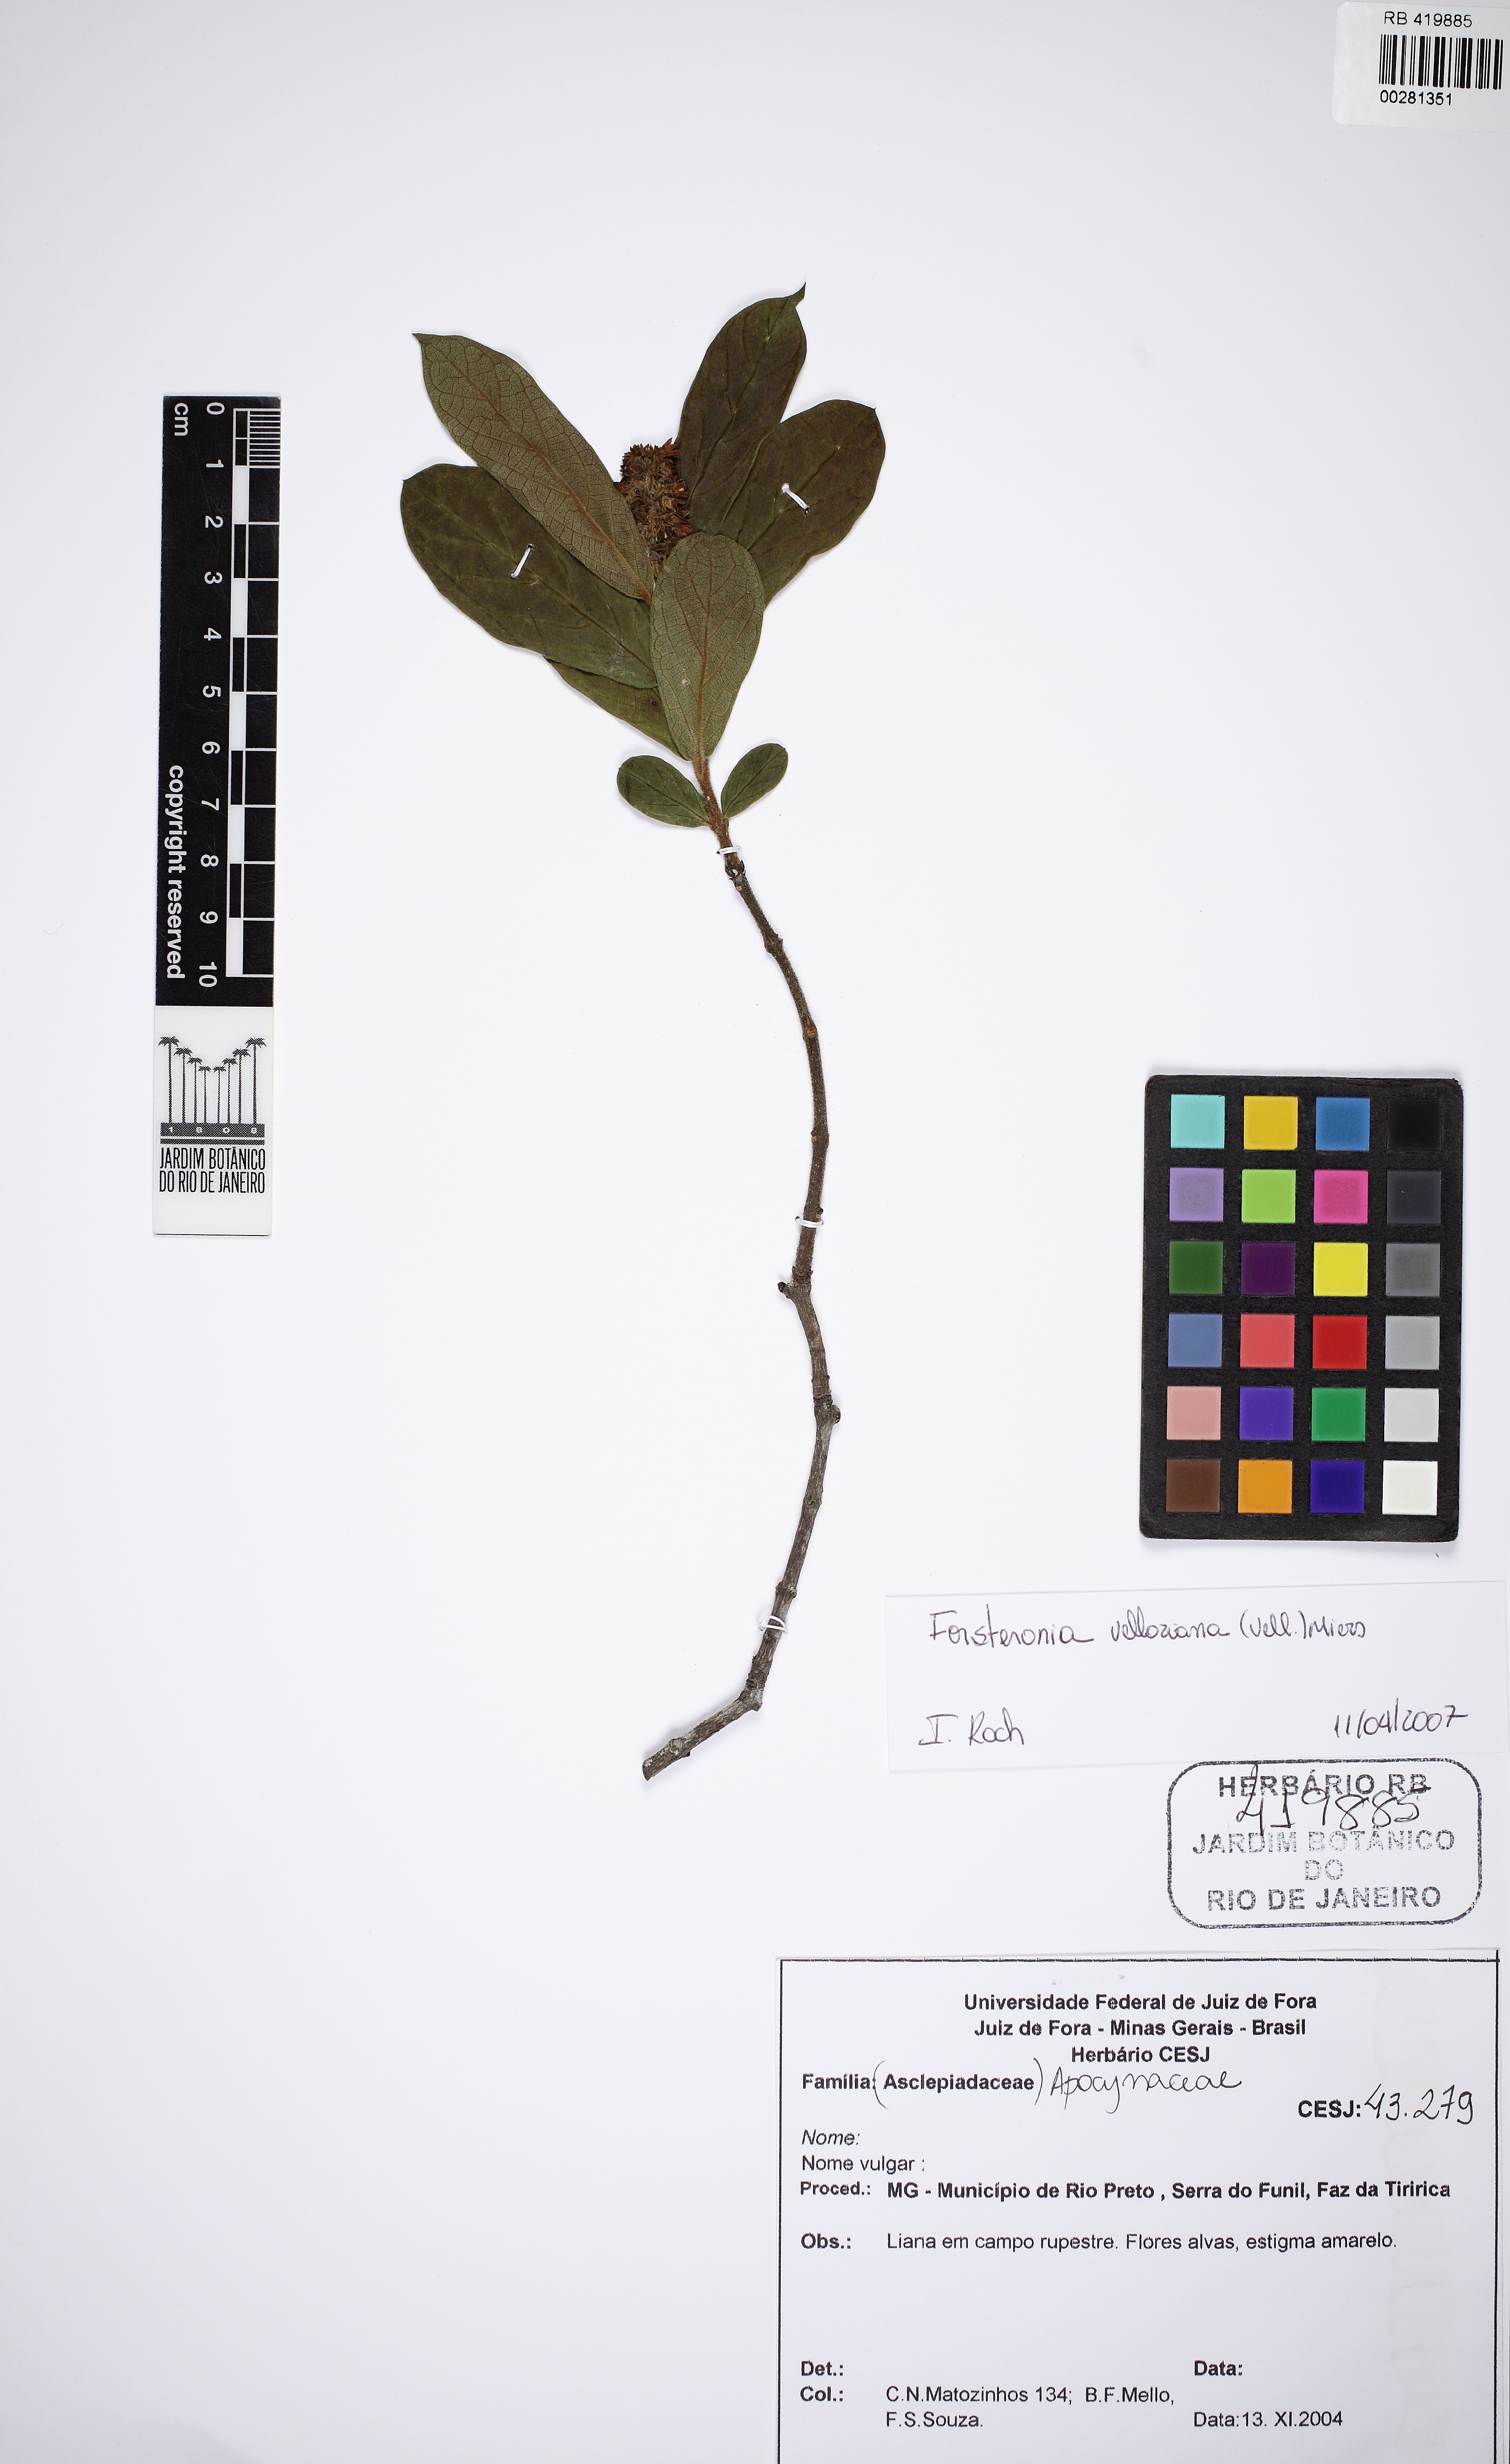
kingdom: Plantae
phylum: Tracheophyta
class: Magnoliopsida
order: Gentianales
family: Apocynaceae
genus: Forsteronia
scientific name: Forsteronia velloziana
